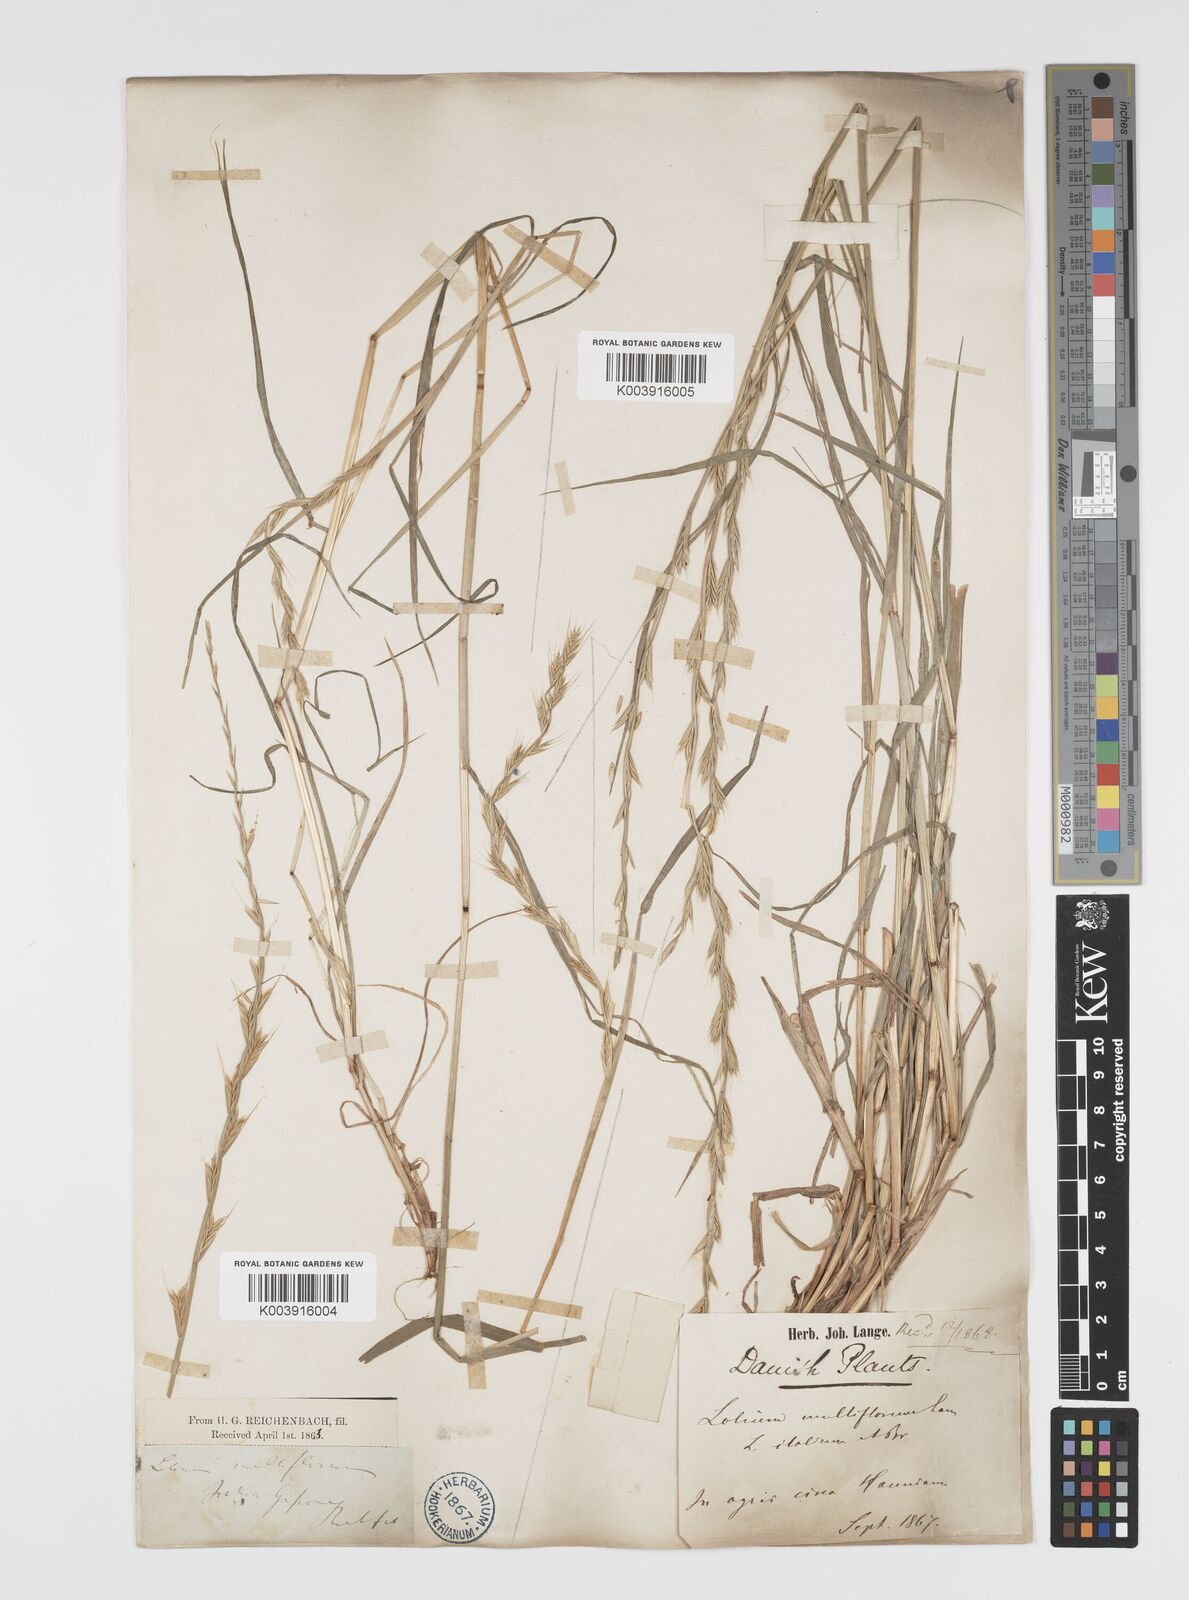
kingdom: Plantae
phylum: Tracheophyta
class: Liliopsida
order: Poales
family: Poaceae
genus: Lolium
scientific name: Lolium multiflorum
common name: Annual ryegrass
